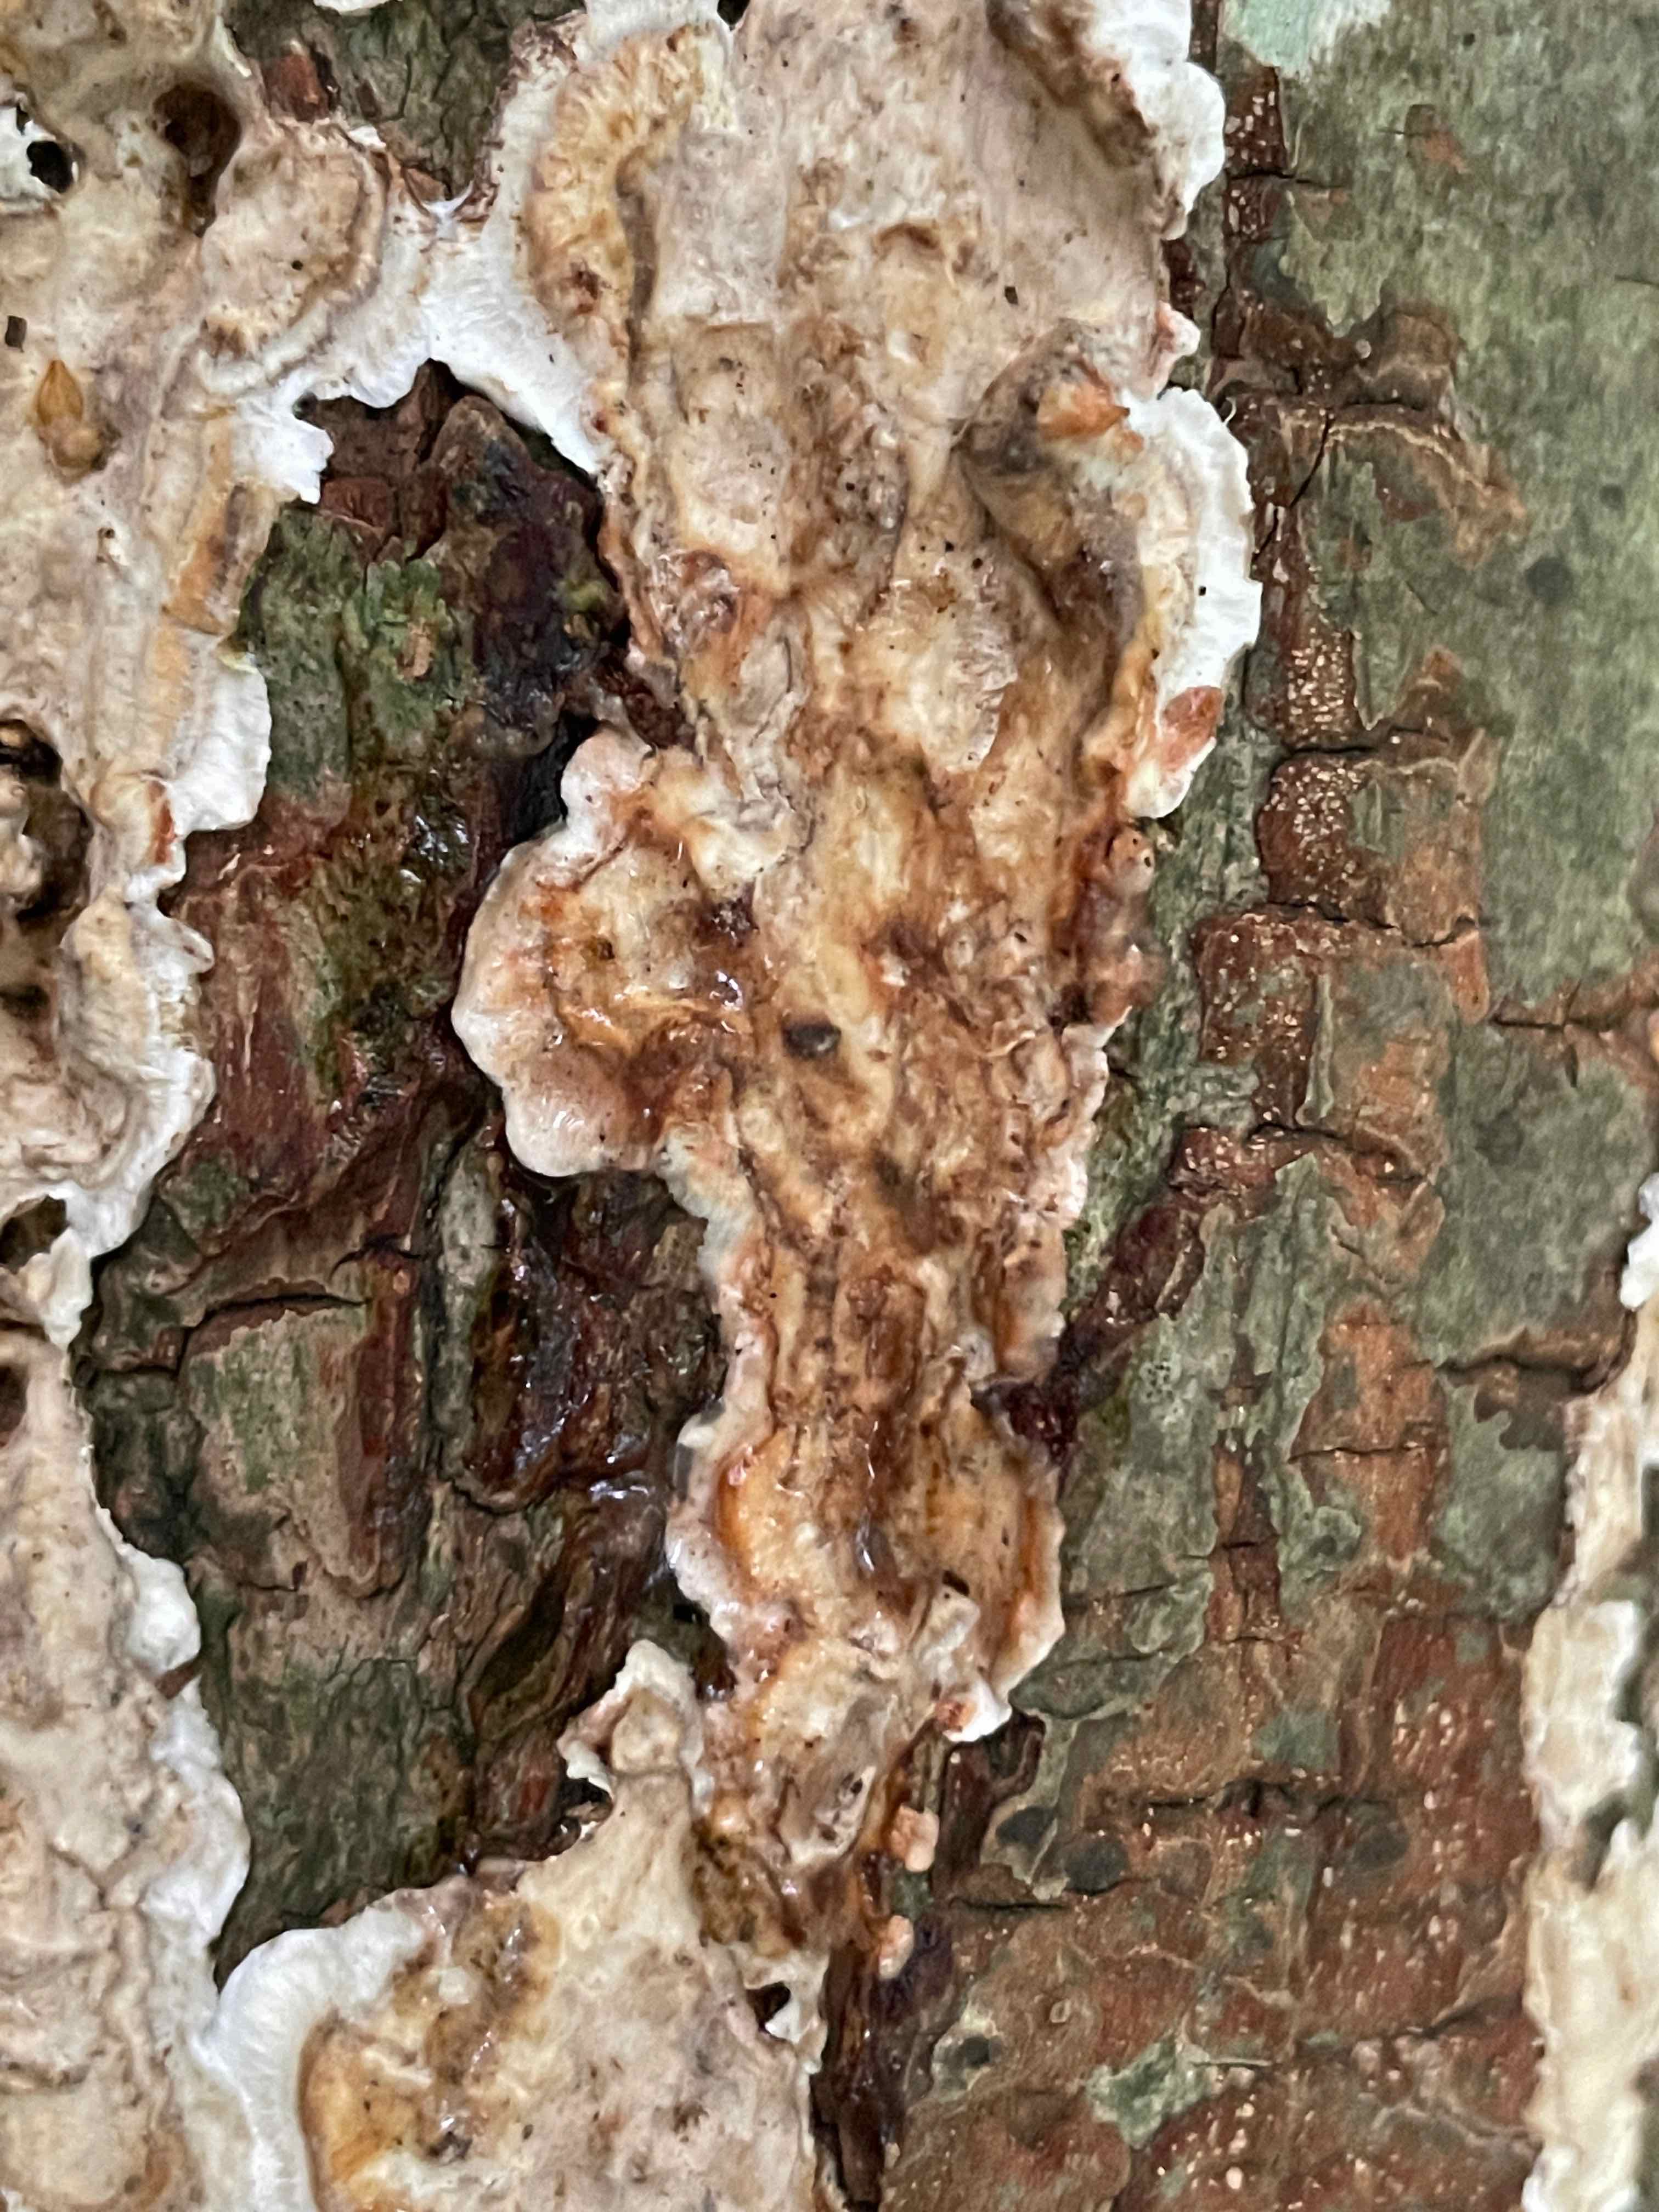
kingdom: Fungi
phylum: Basidiomycota
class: Agaricomycetes
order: Russulales
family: Stereaceae
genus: Stereum
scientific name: Stereum gausapatum
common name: tynd lædersvamp
